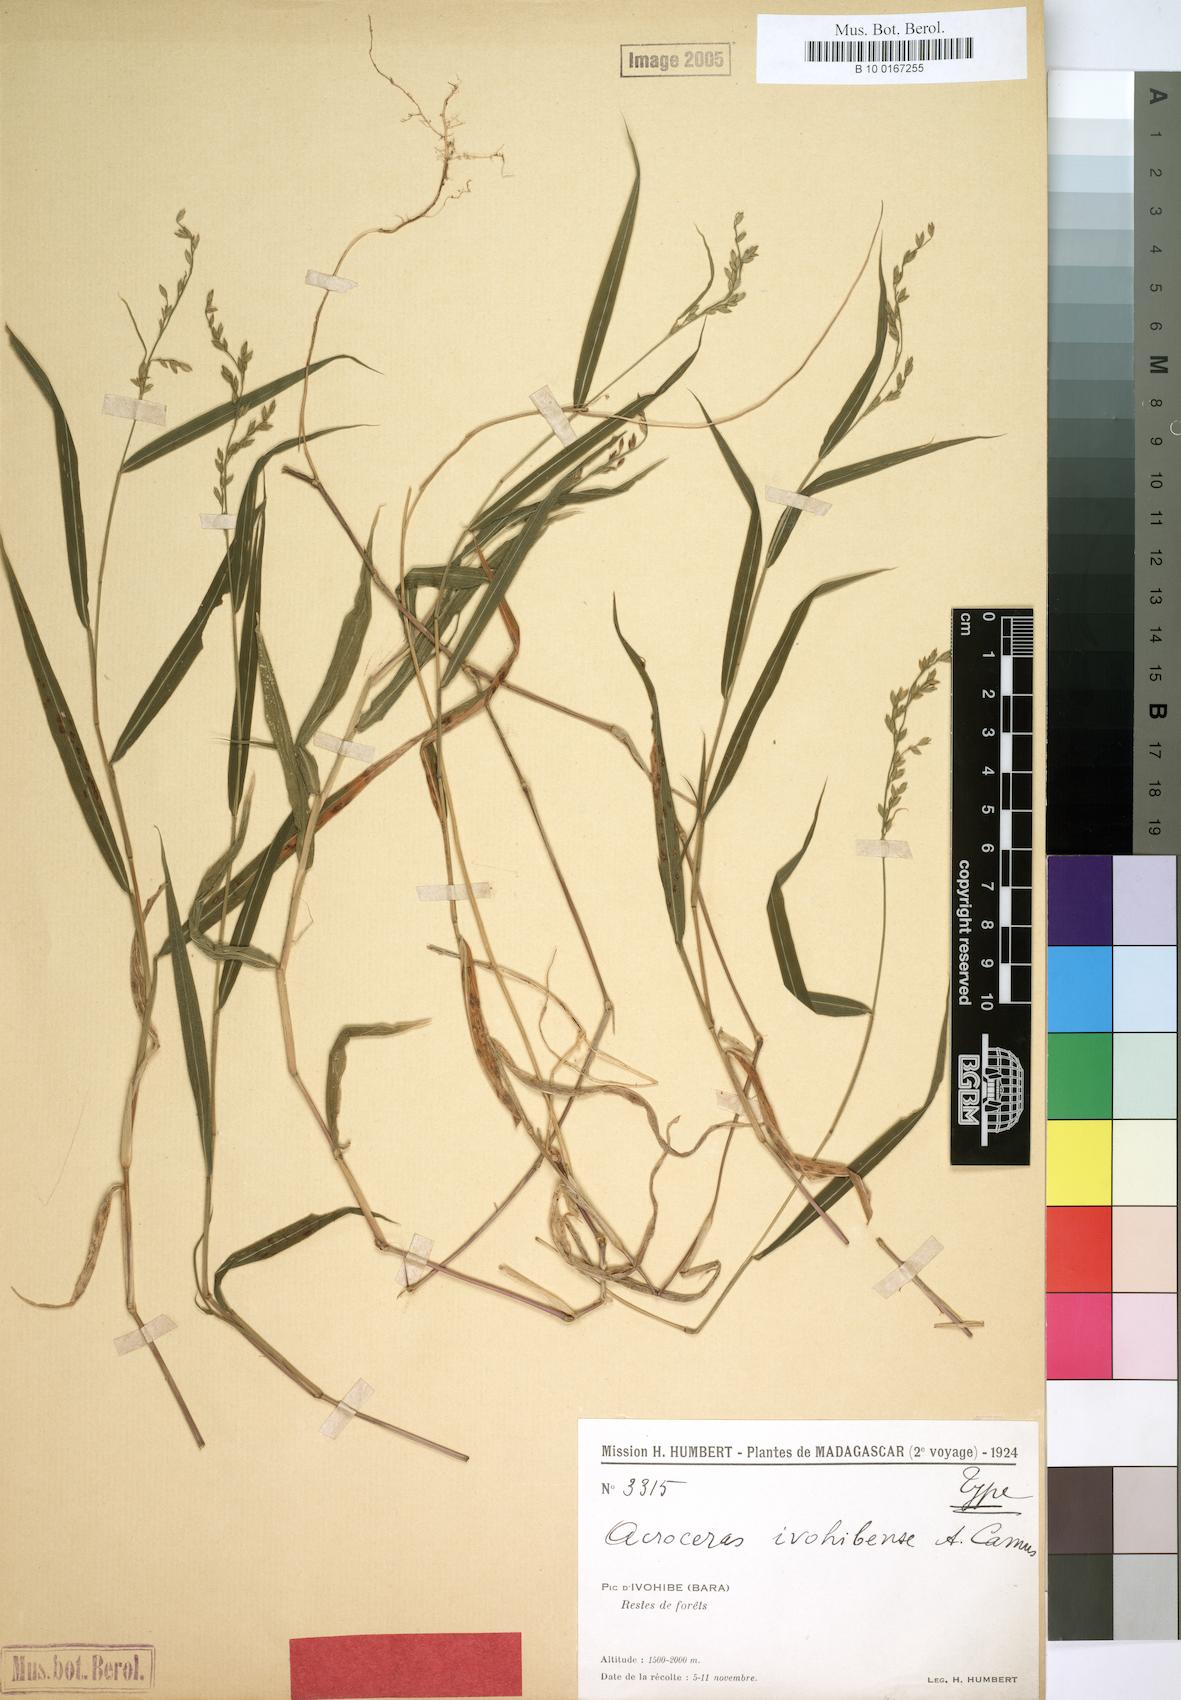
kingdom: Plantae
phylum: Tracheophyta
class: Liliopsida
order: Poales
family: Poaceae
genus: Acroceras
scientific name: Acroceras ivohibense
